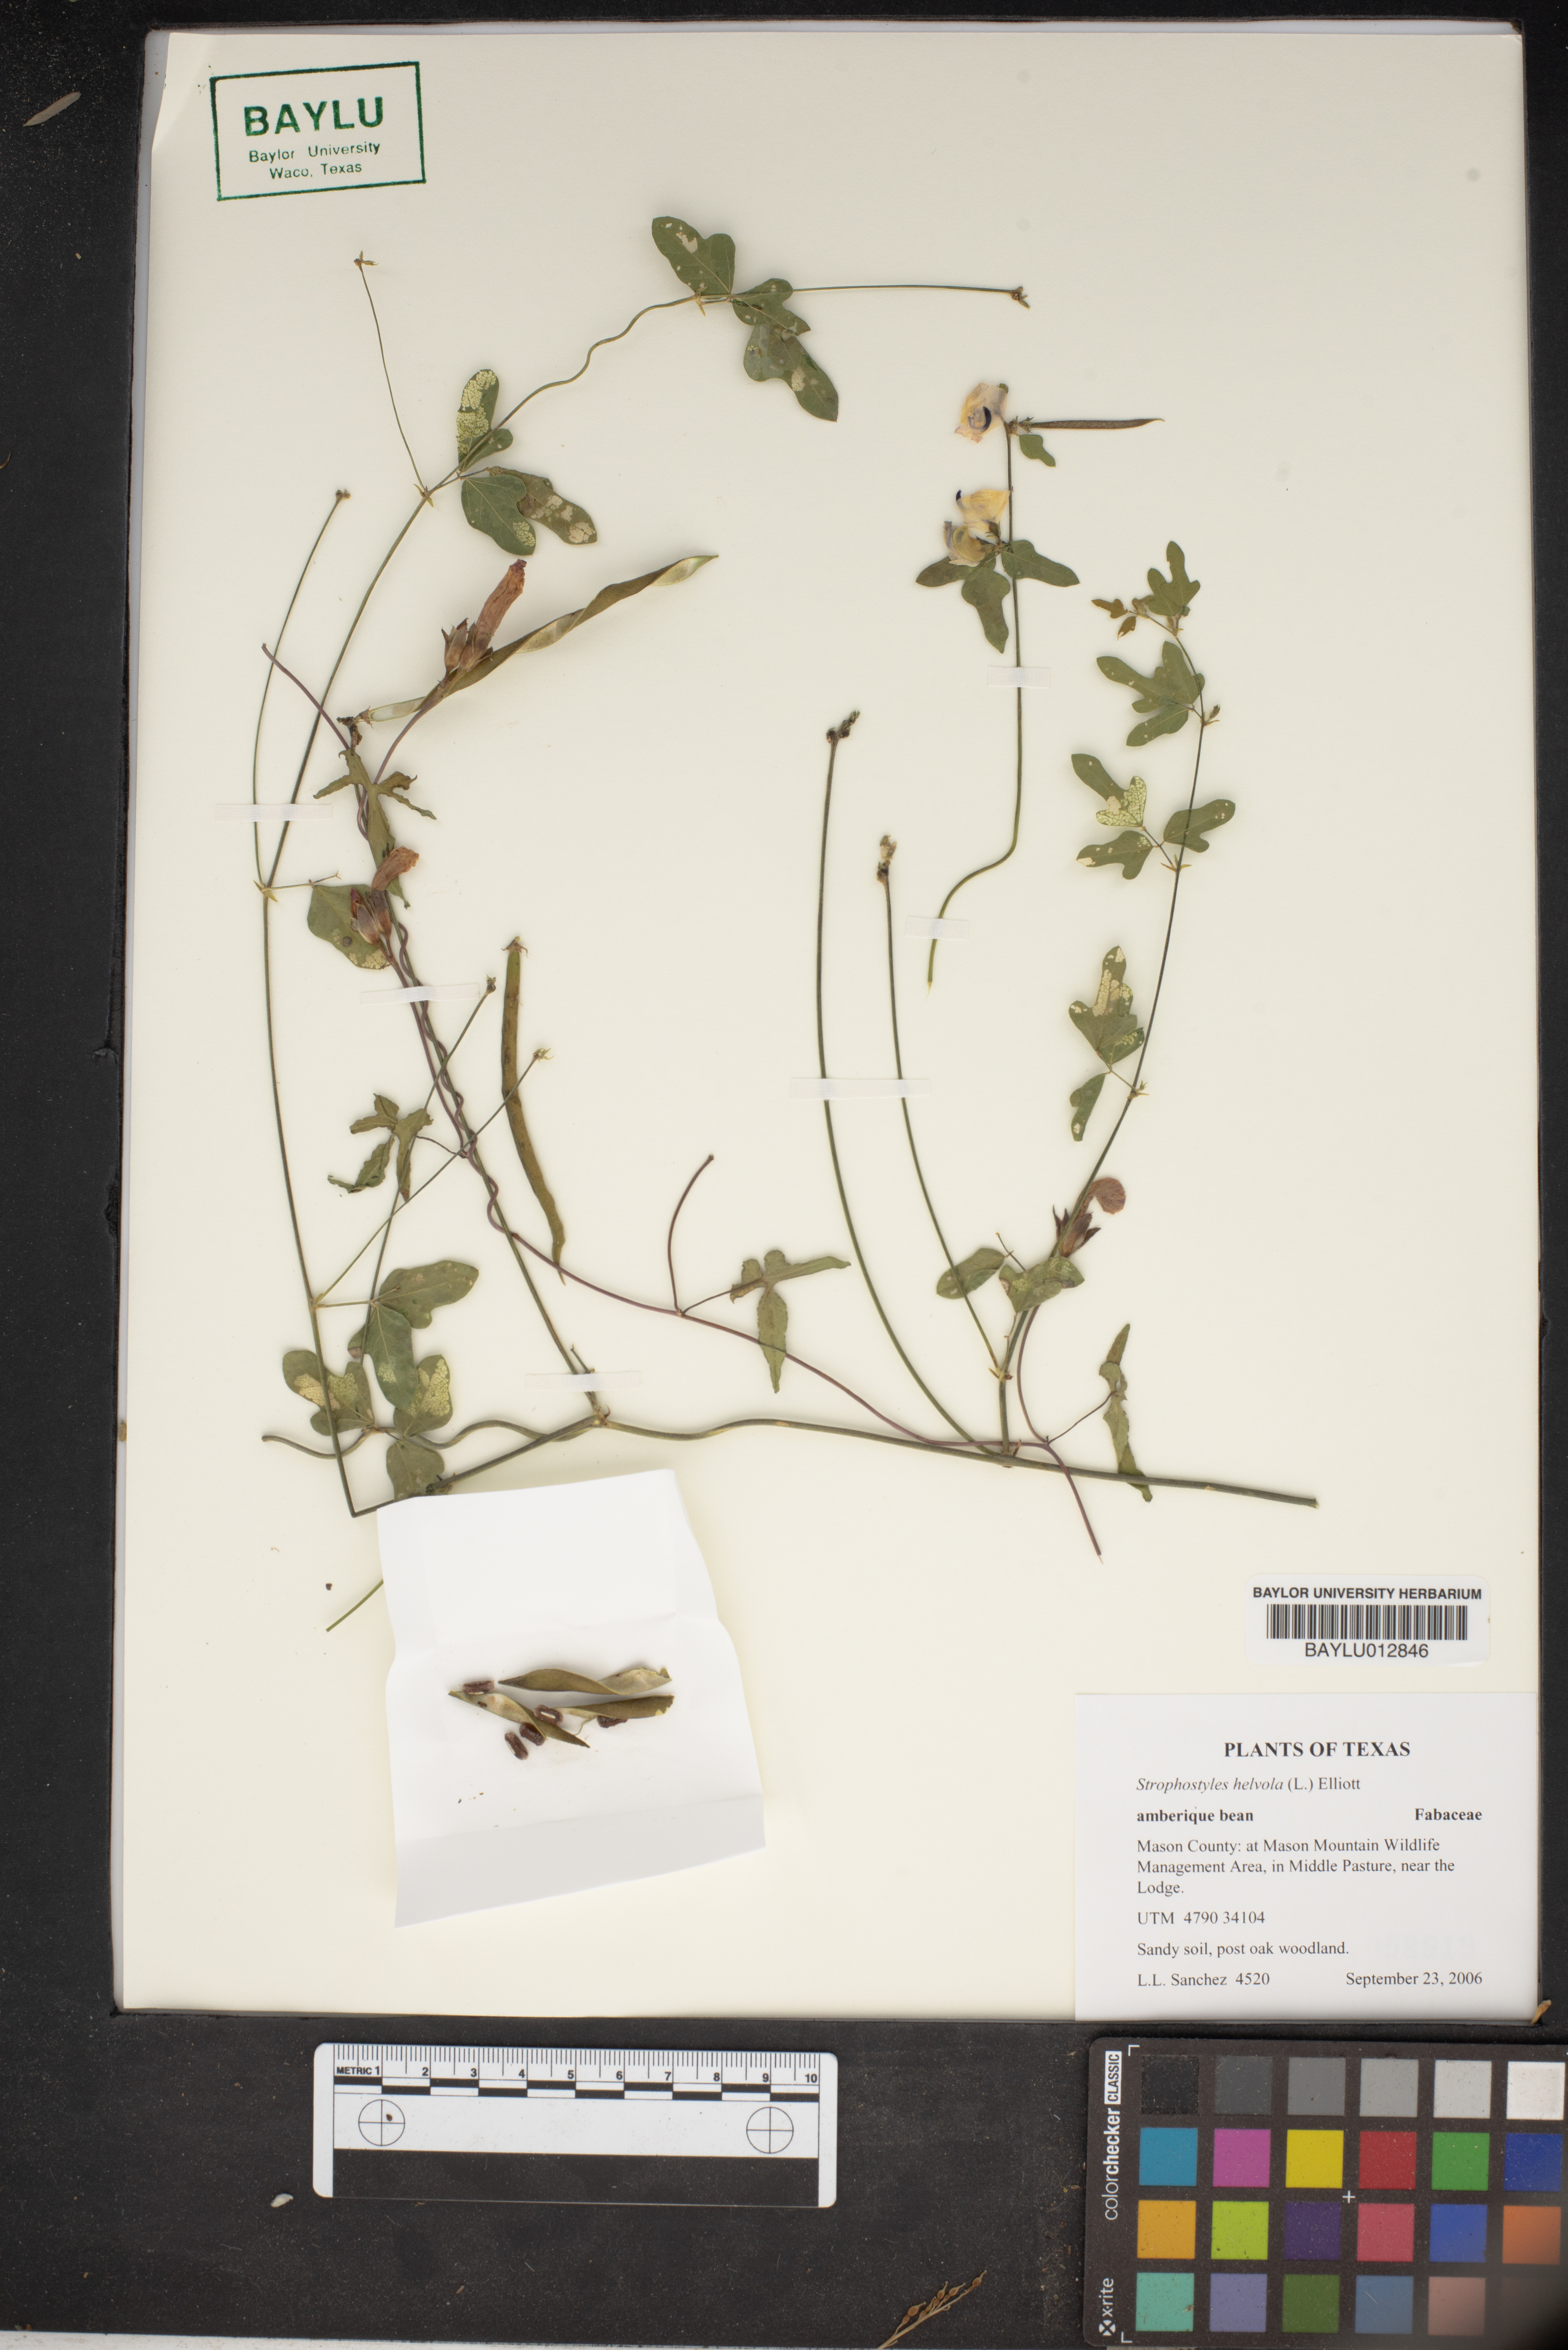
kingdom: Plantae
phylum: Tracheophyta
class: Magnoliopsida
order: Fabales
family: Fabaceae
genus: Strophostyles
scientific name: Strophostyles helvola
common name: Trailing wild bean
